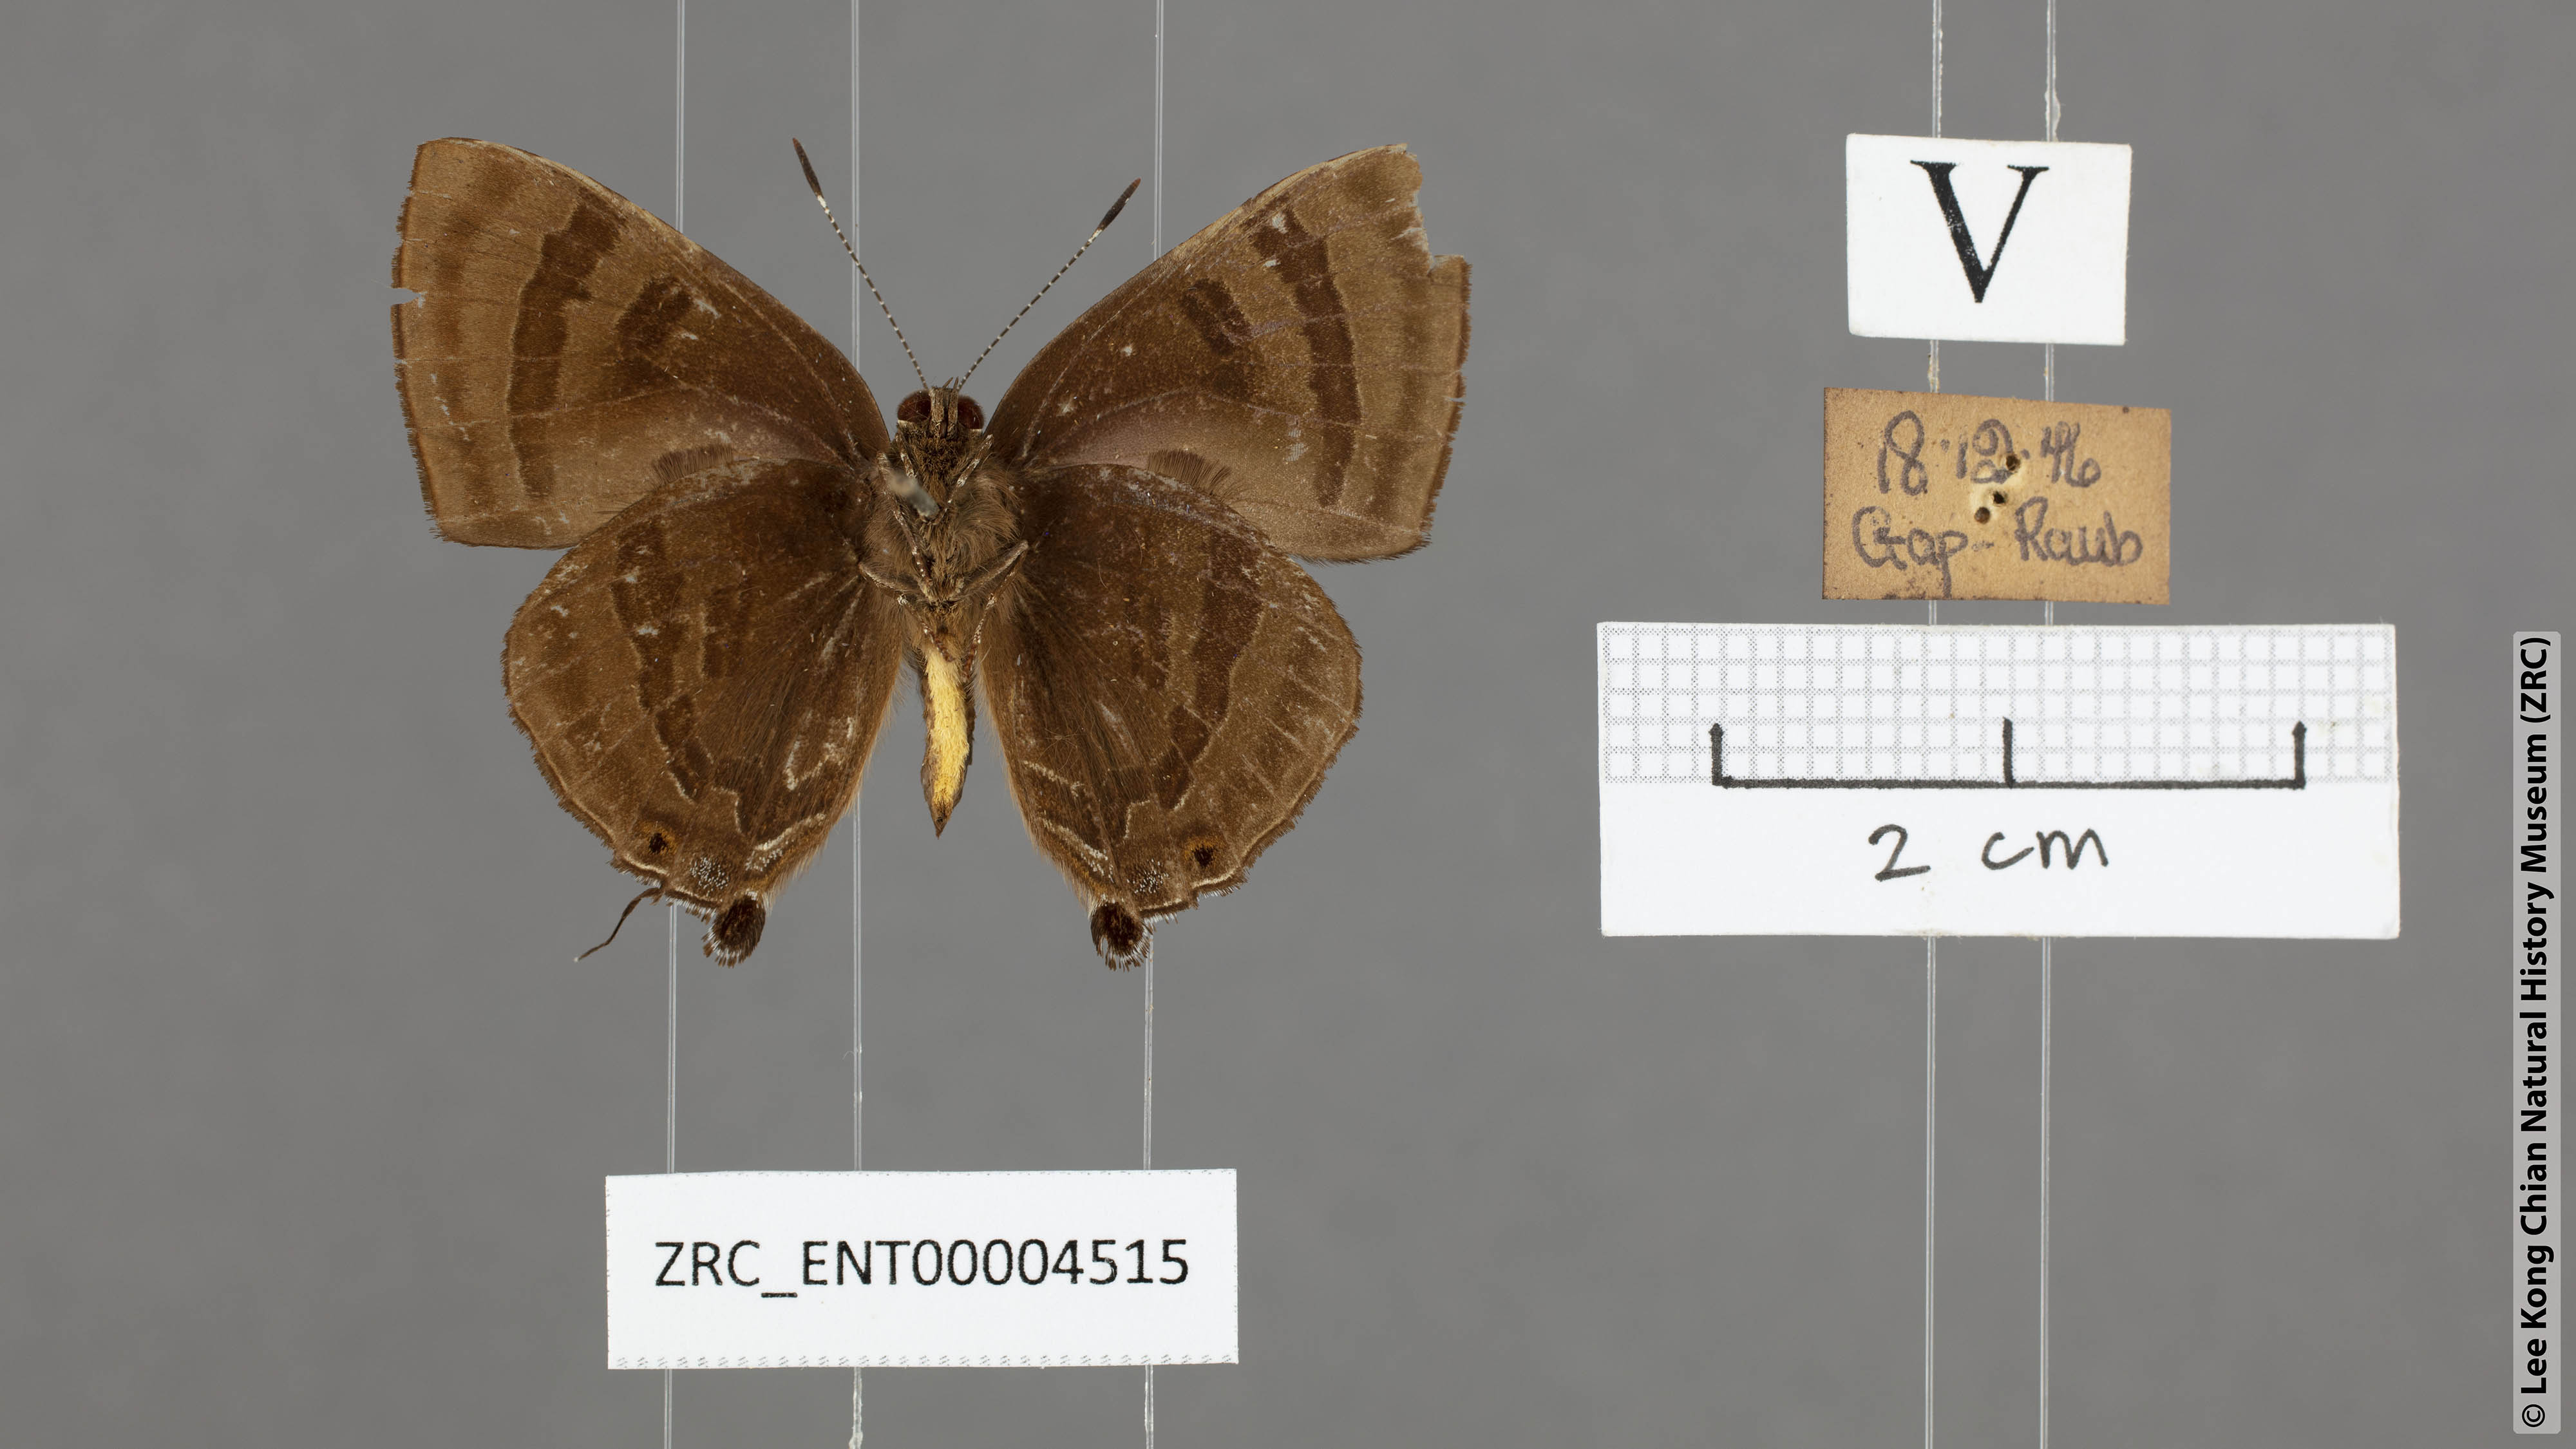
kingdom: Animalia
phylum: Arthropoda
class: Insecta
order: Lepidoptera
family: Lycaenidae
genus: Rapala
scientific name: Rapala rhoecus
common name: Brilliant flash
